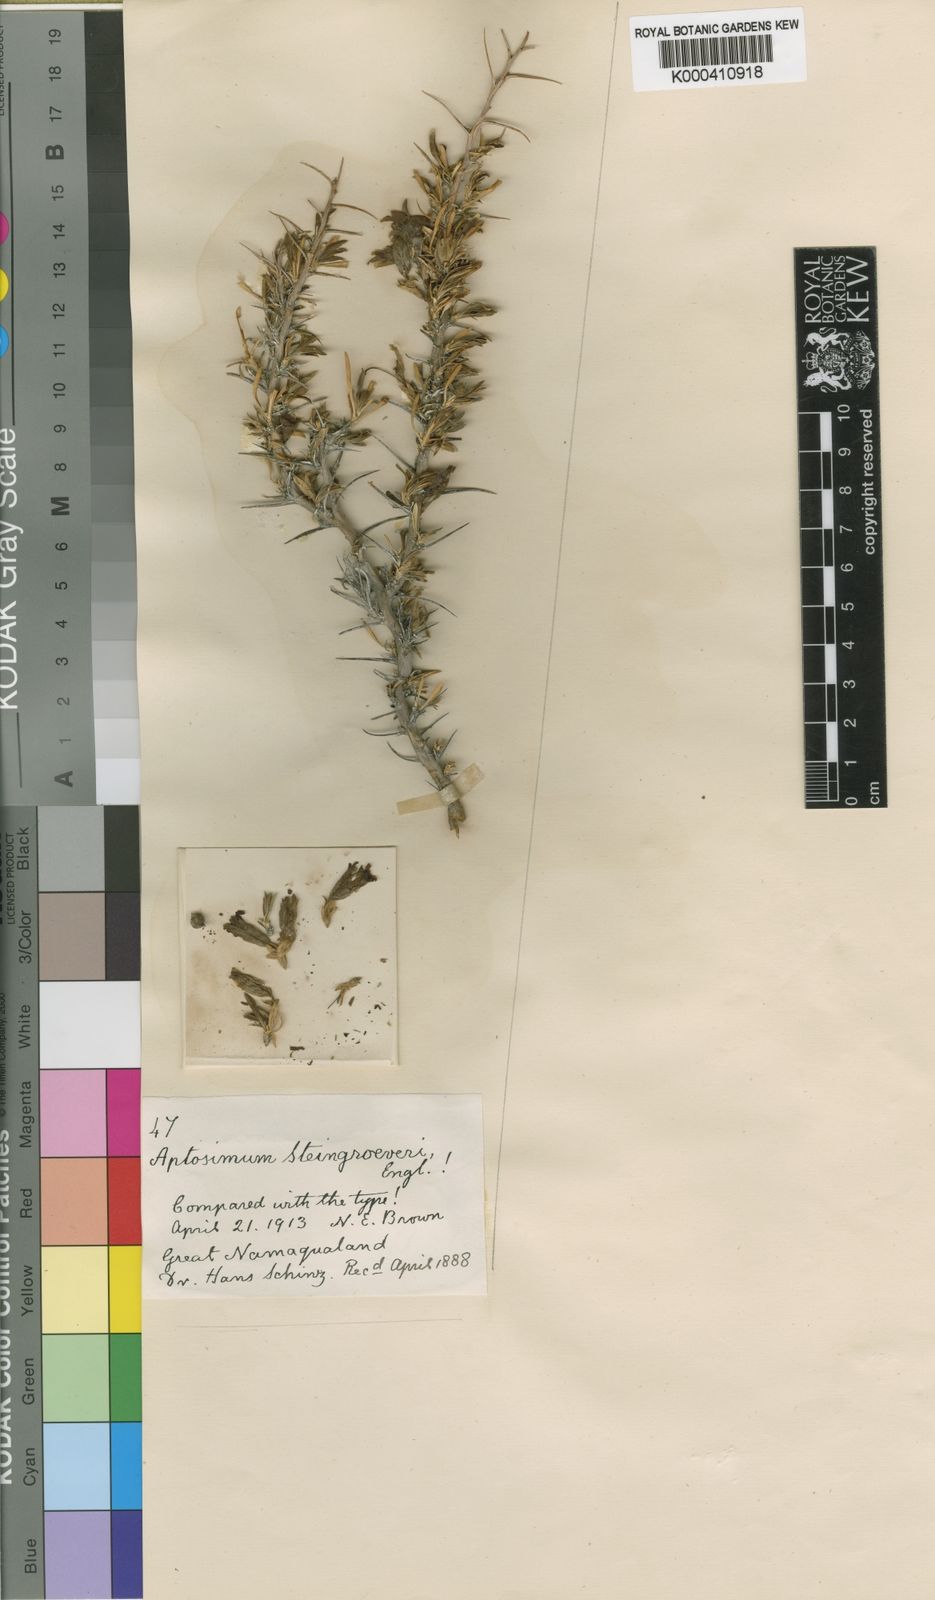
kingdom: Plantae
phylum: Tracheophyta
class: Magnoliopsida
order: Lamiales
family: Scrophulariaceae
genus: Aptosimum
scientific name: Aptosimum spinescens
